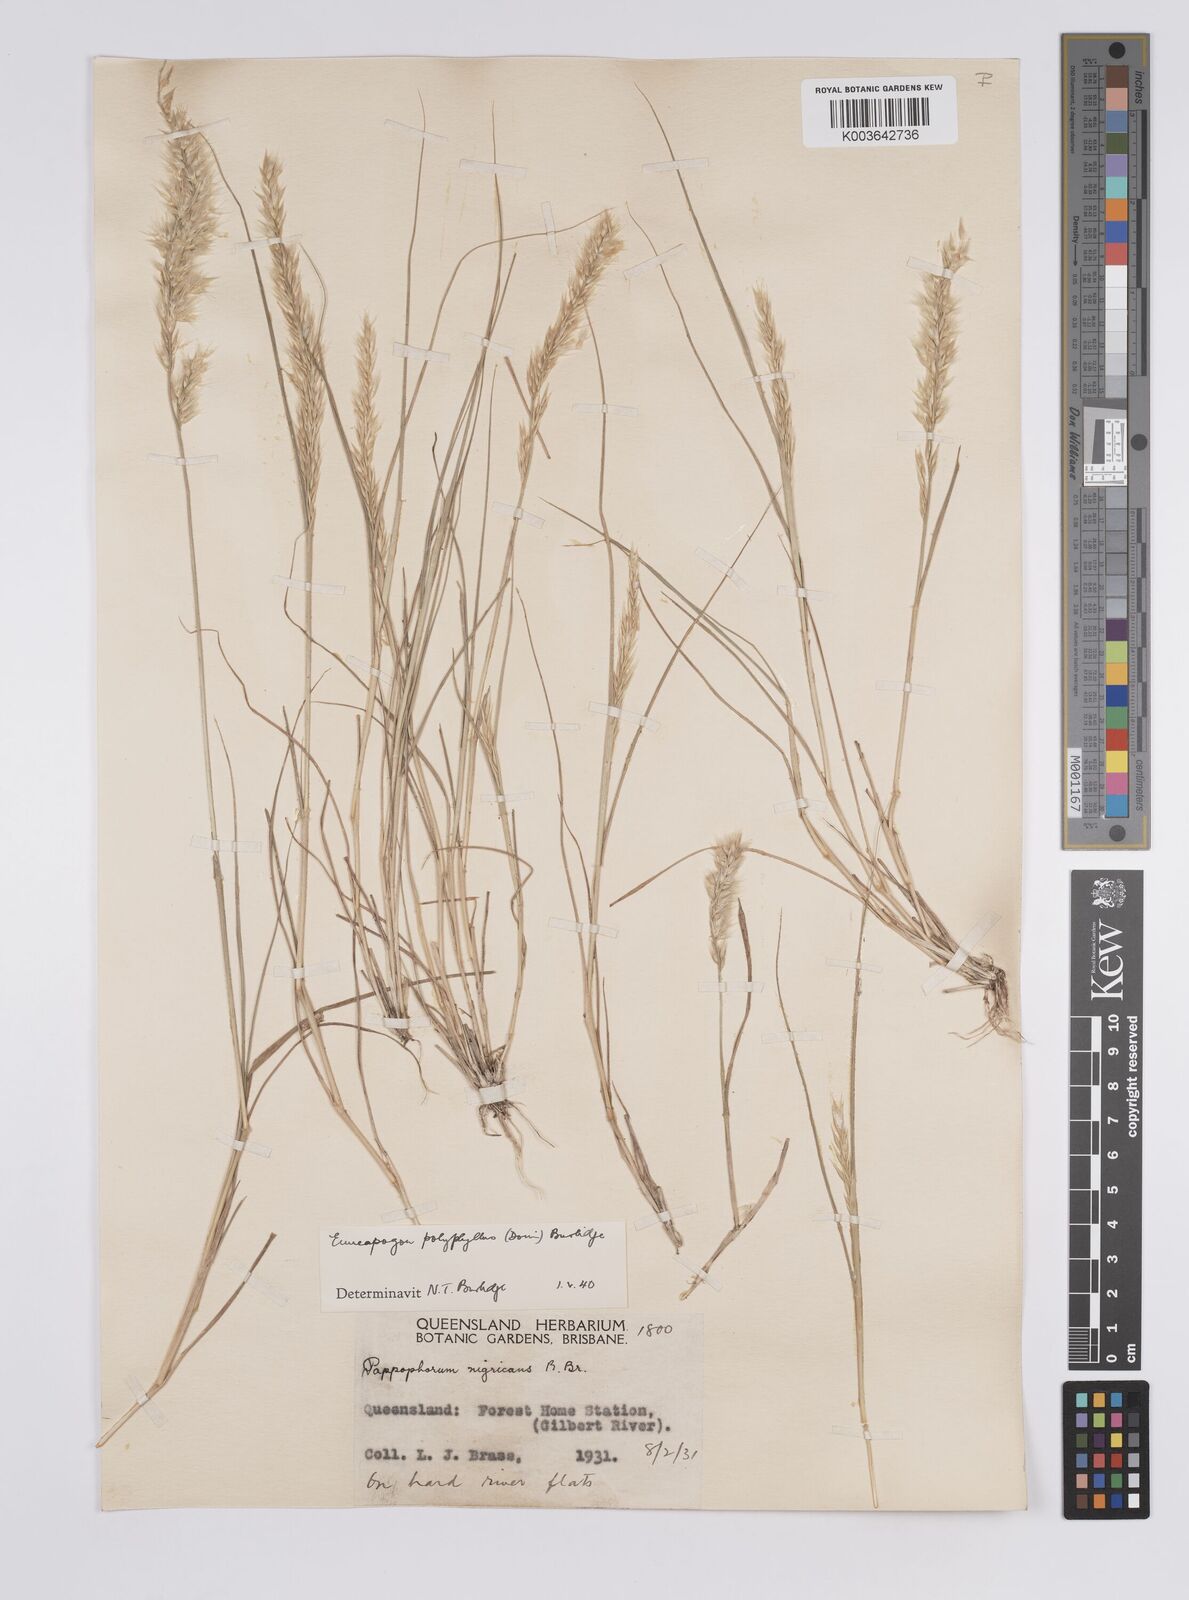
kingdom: Plantae
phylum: Tracheophyta
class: Liliopsida
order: Poales
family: Poaceae
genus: Enneapogon
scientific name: Enneapogon polyphyllus
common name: Leafy nineawn
